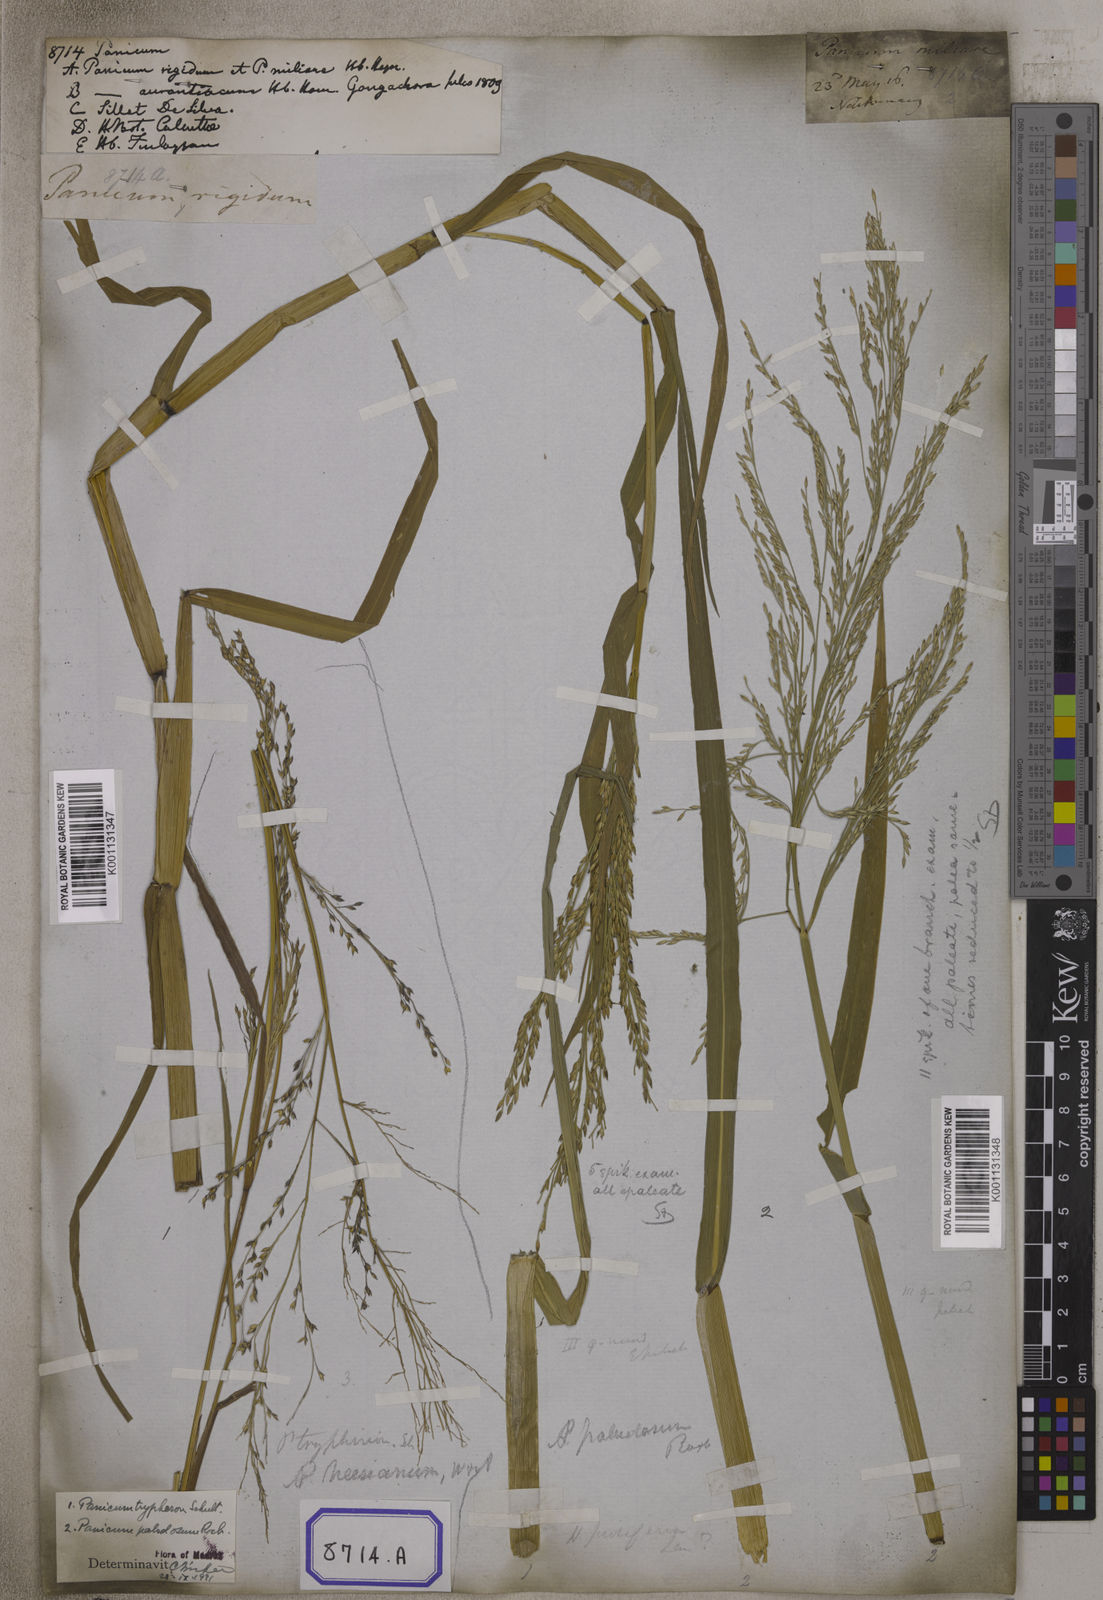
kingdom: Plantae
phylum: Tracheophyta
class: Liliopsida
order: Poales
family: Poaceae
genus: Panicum
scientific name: Panicum
